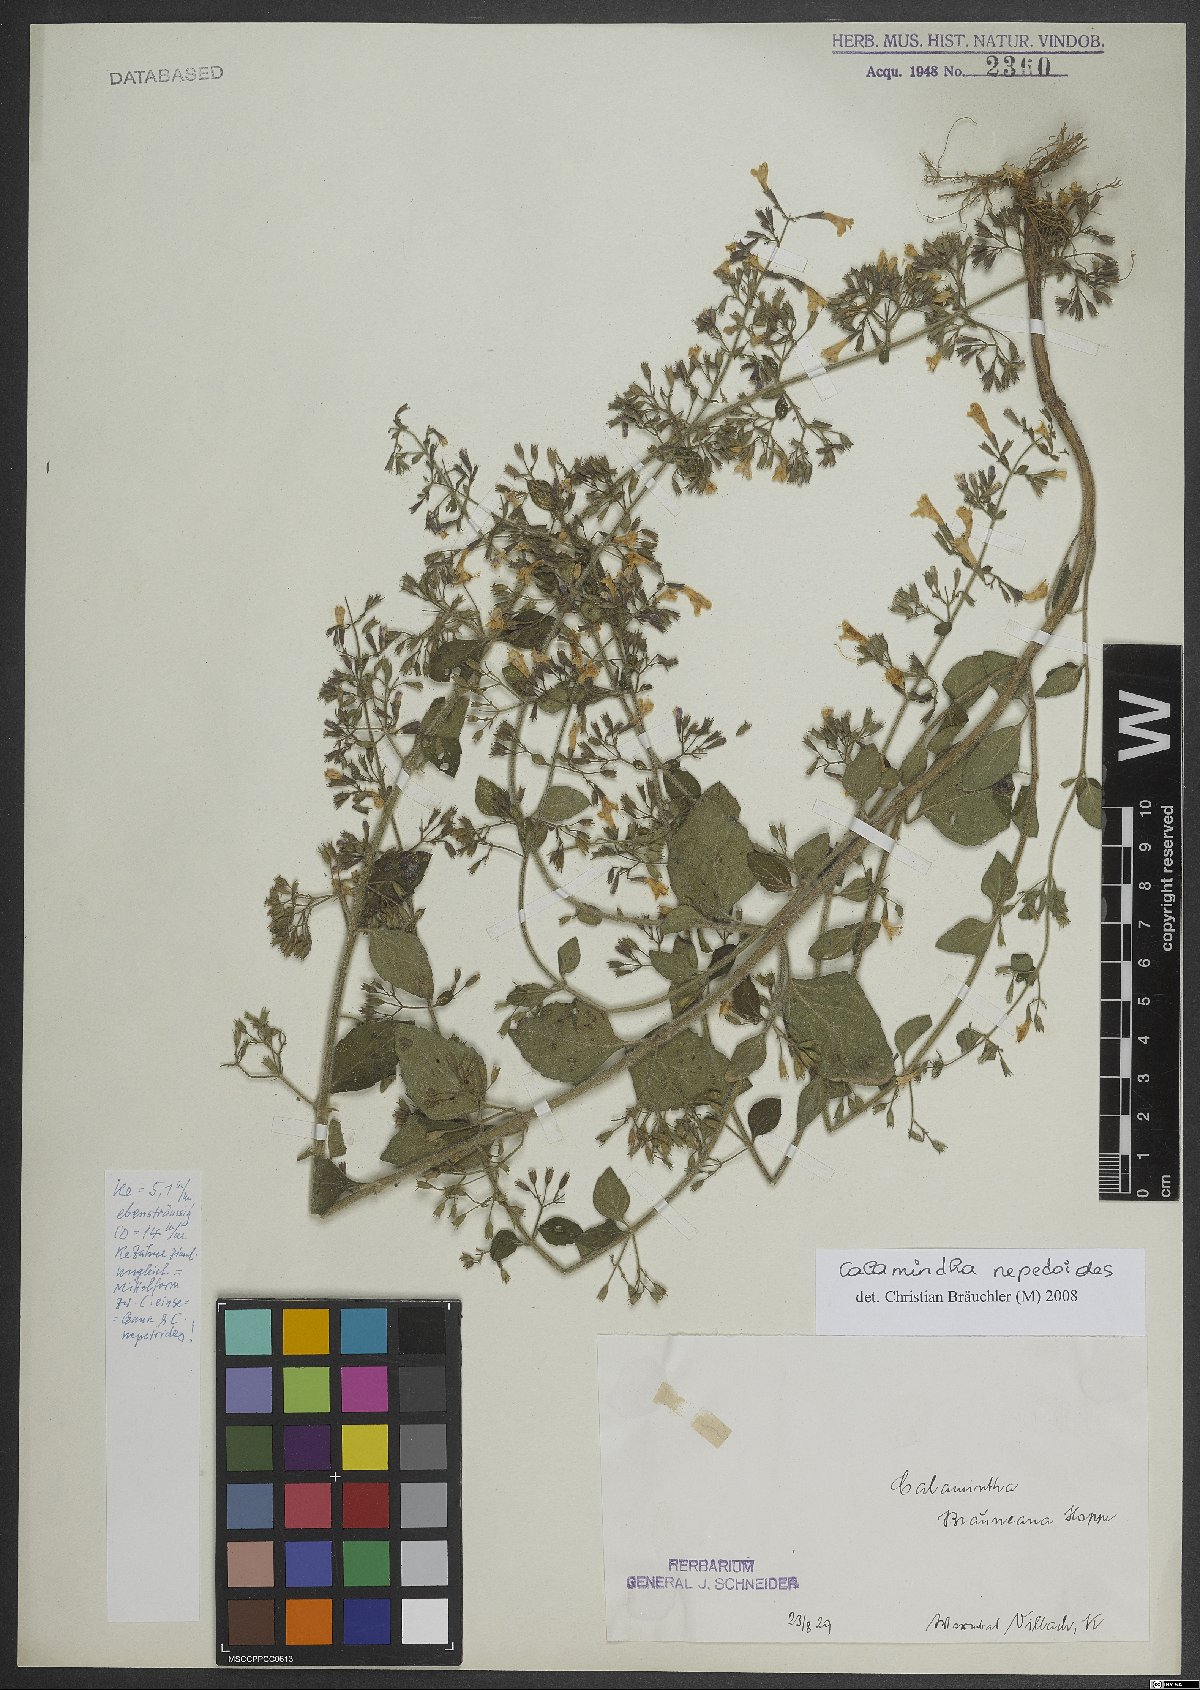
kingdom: Plantae
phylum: Tracheophyta
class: Magnoliopsida
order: Lamiales
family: Lamiaceae
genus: Clinopodium
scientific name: Clinopodium nepeta
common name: Lesser calamint
